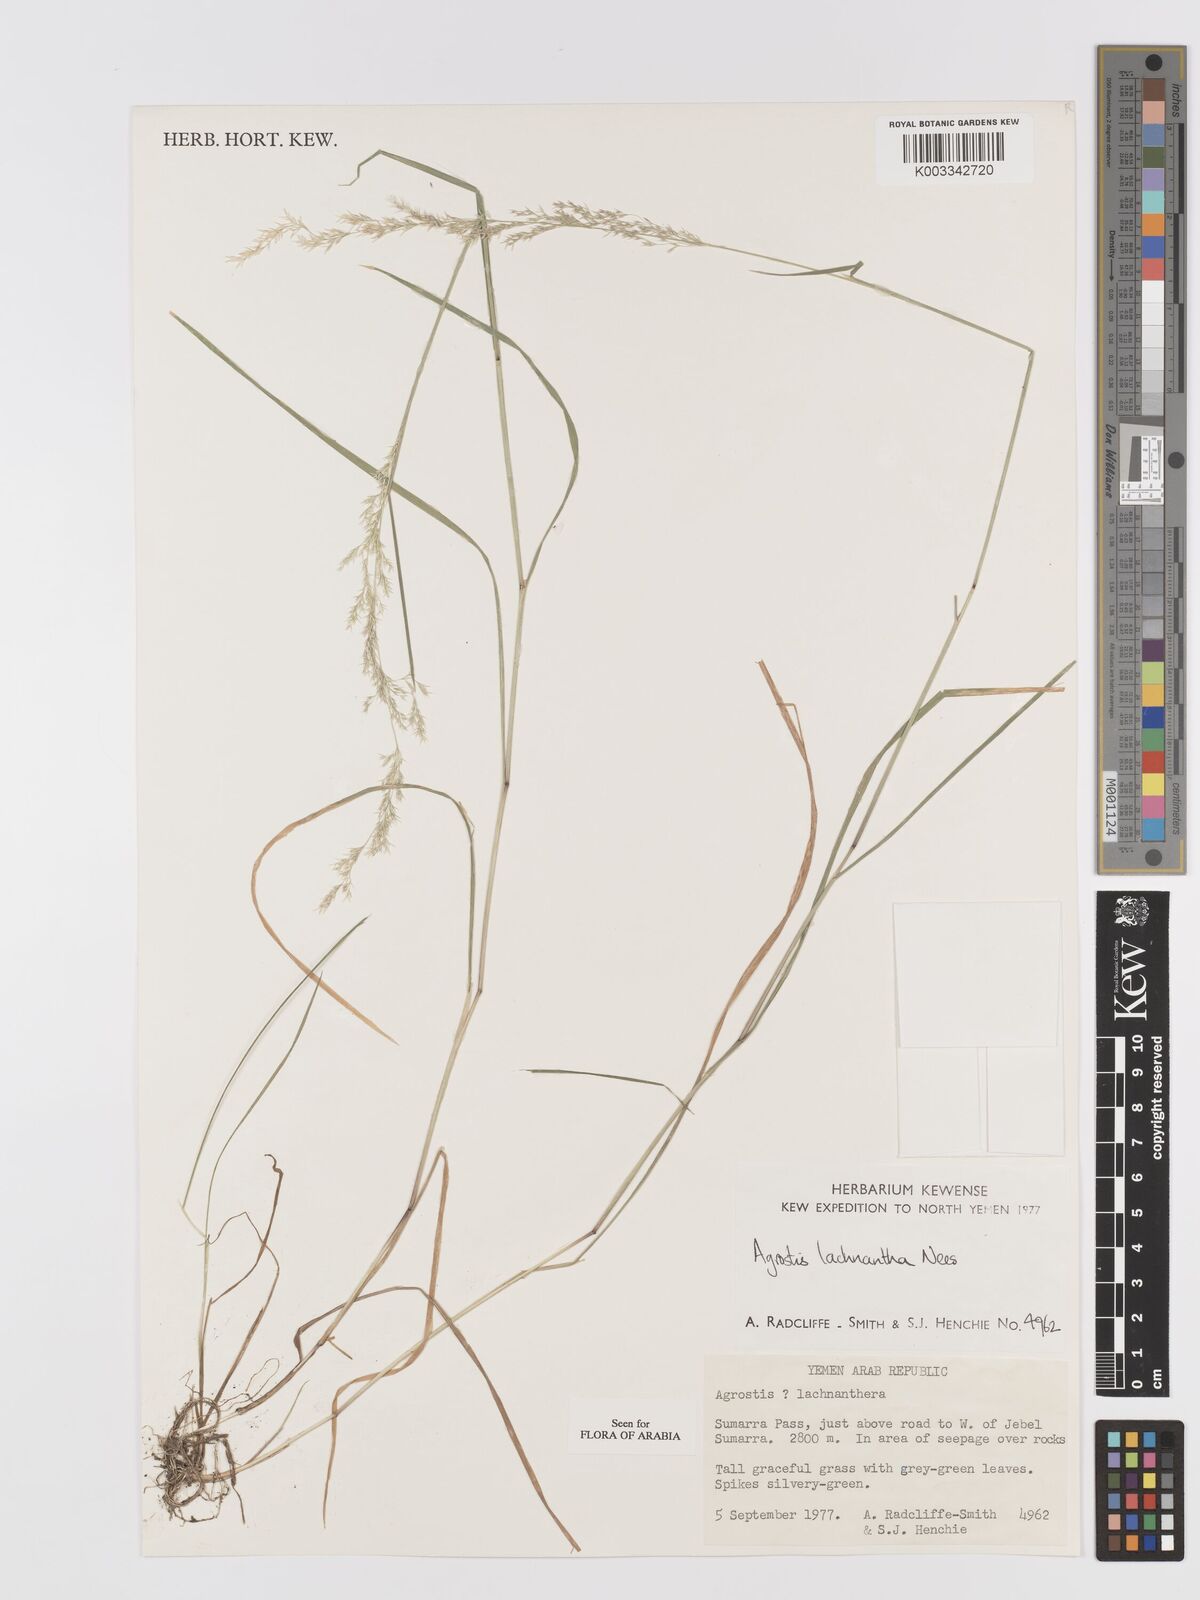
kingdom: Plantae
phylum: Tracheophyta
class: Liliopsida
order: Poales
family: Poaceae
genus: Lachnagrostis
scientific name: Lachnagrostis lachnantha
